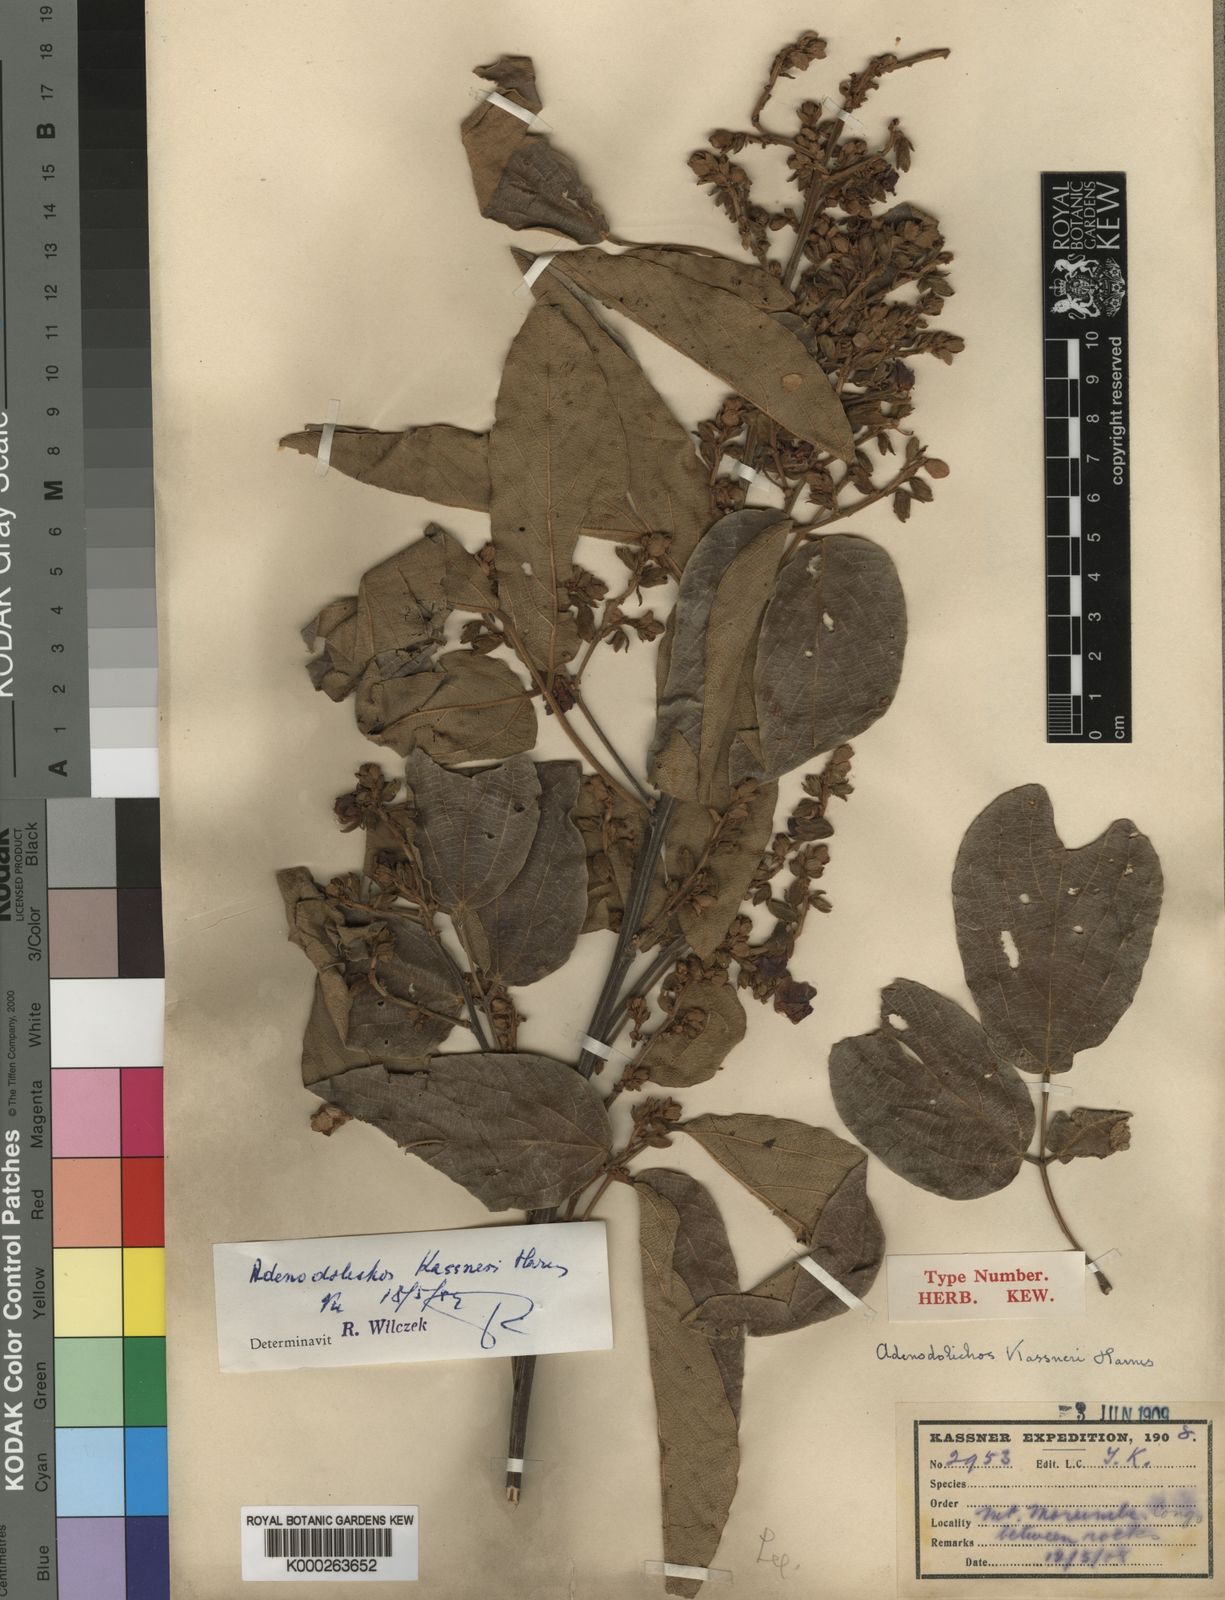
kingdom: Plantae
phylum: Tracheophyta
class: Magnoliopsida
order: Fabales
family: Fabaceae
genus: Adenodolichos
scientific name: Adenodolichos
